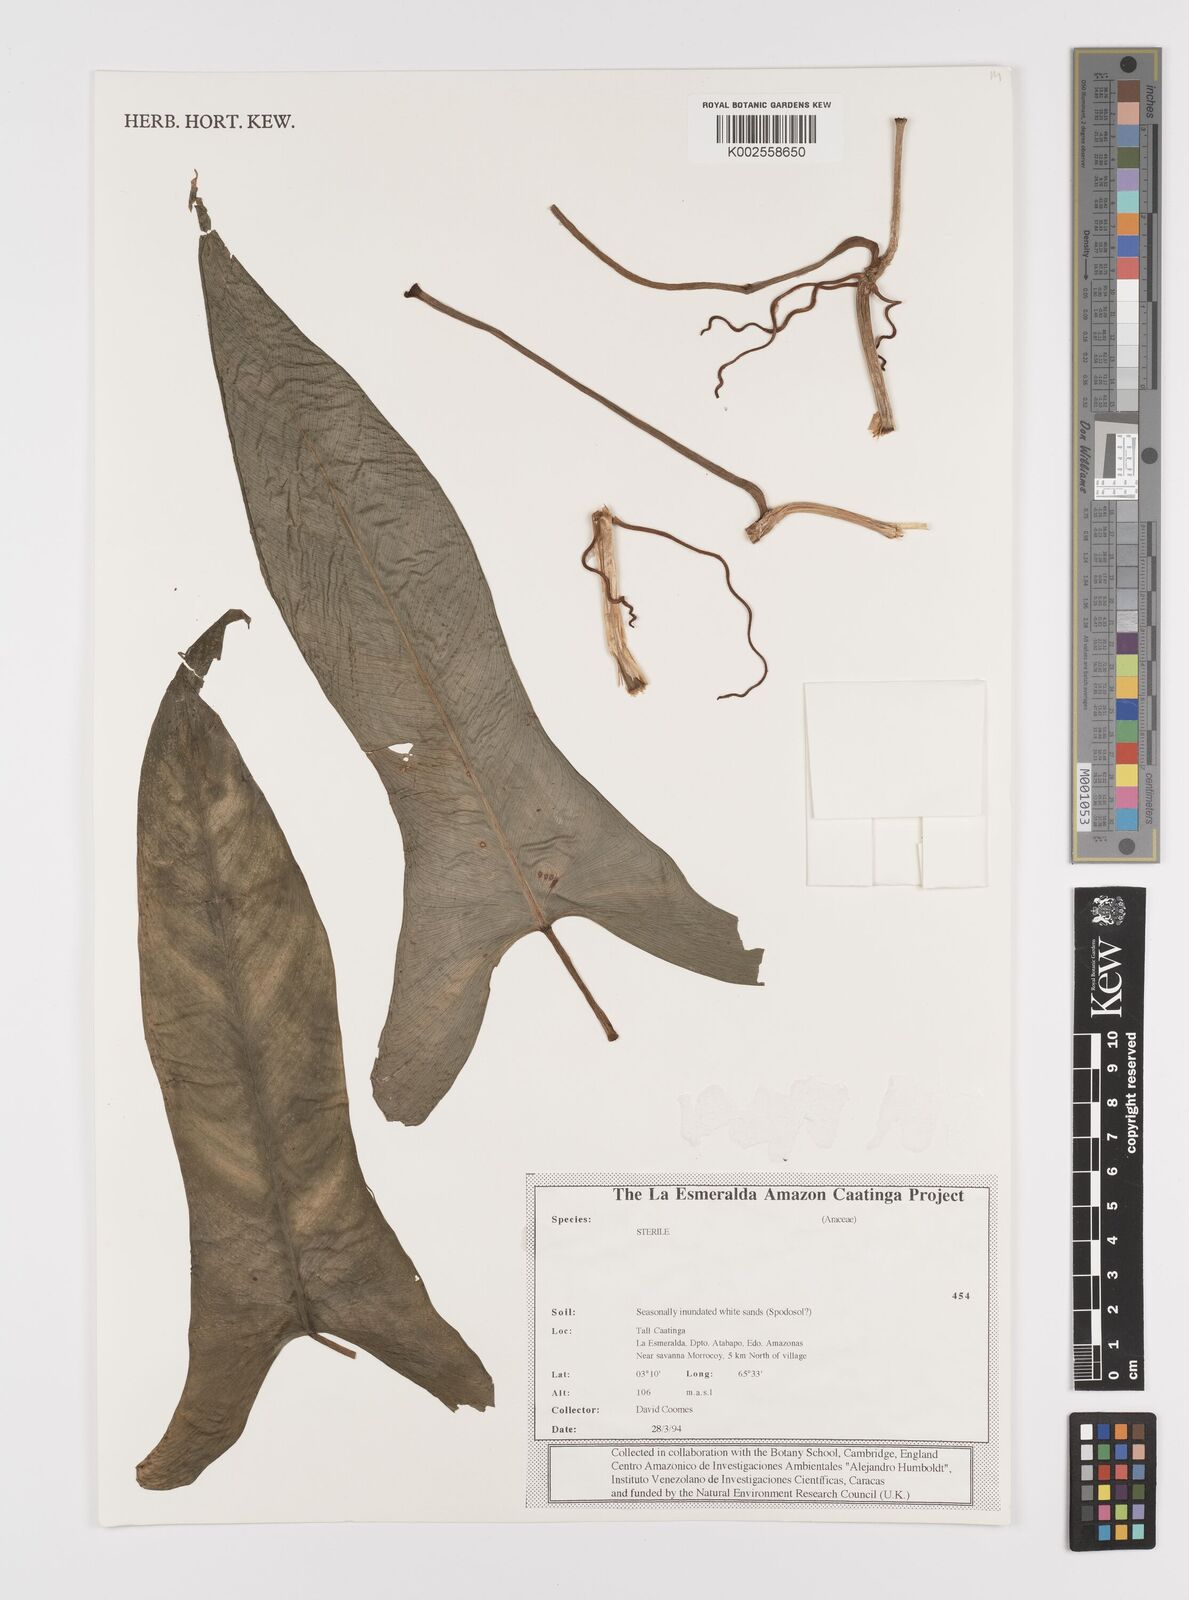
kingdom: Plantae
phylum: Tracheophyta
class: Liliopsida
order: Alismatales
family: Araceae
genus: Philodendron
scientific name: Philodendron brevispathum
